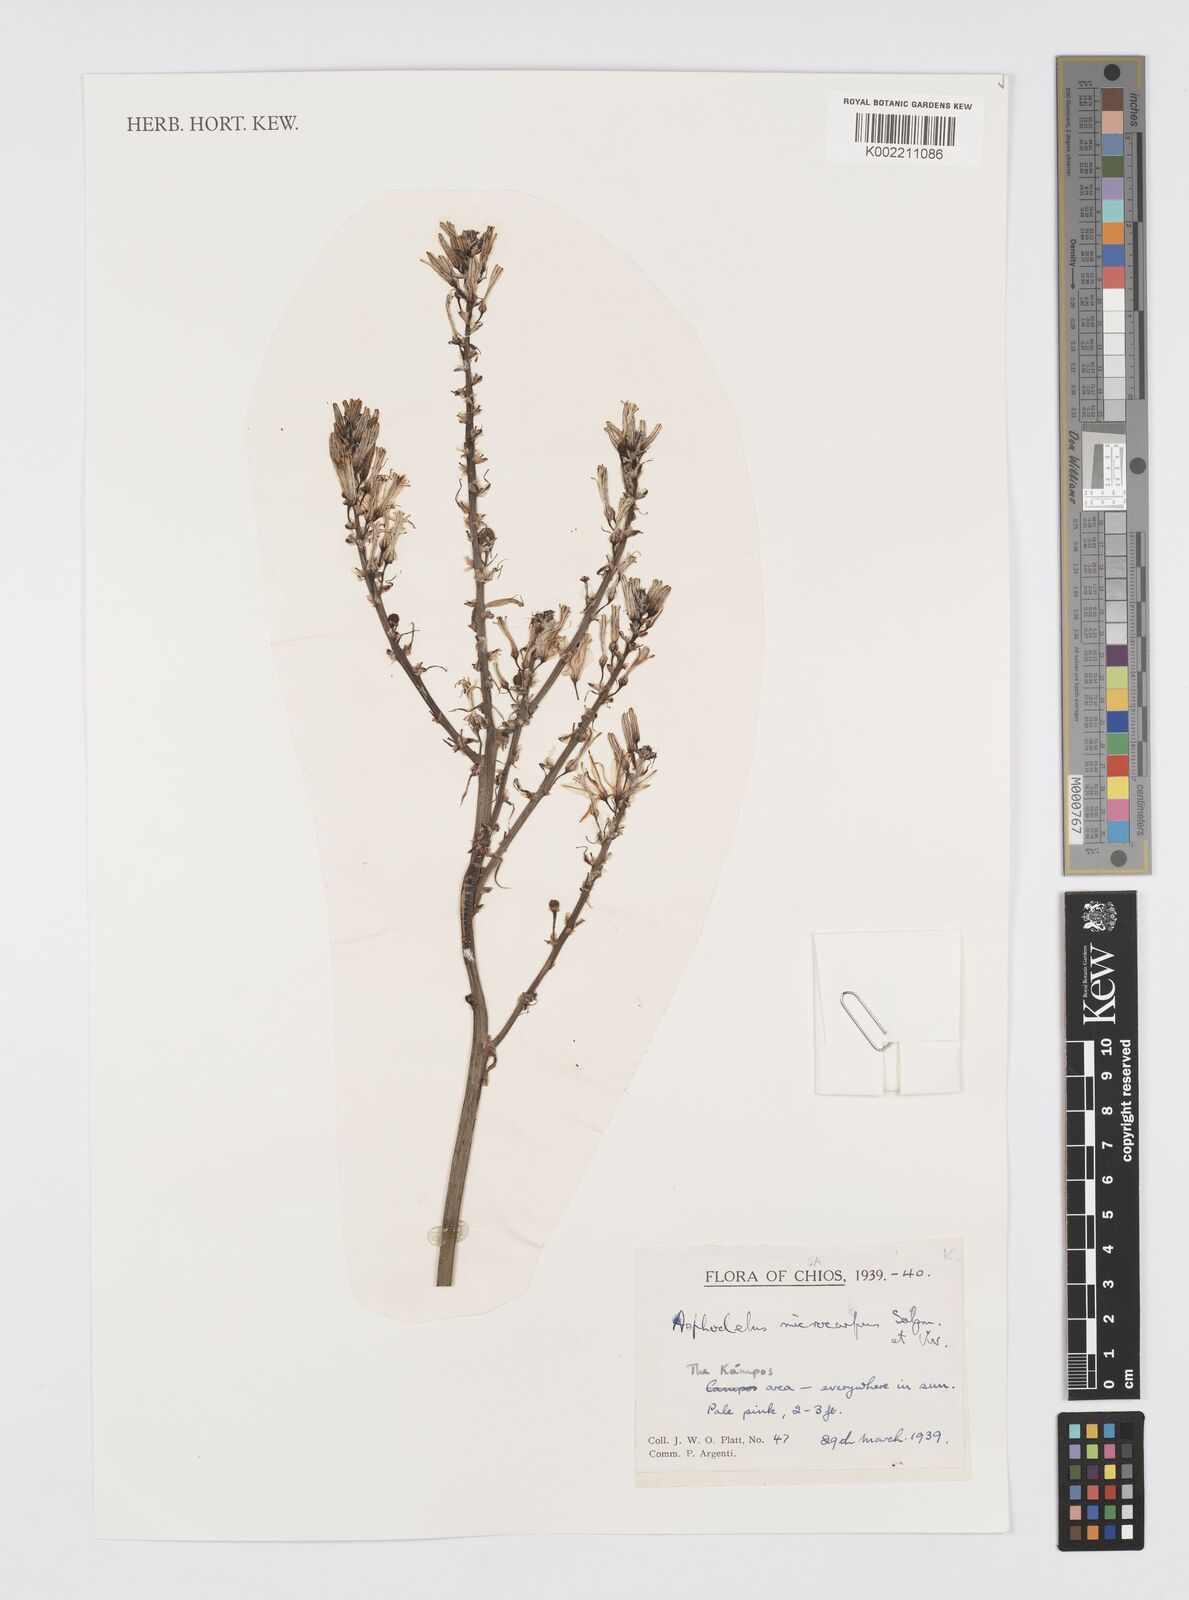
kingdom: Plantae
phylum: Tracheophyta
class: Liliopsida
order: Asparagales
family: Asphodelaceae
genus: Asphodelus
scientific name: Asphodelus ramosus
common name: Silverrod
